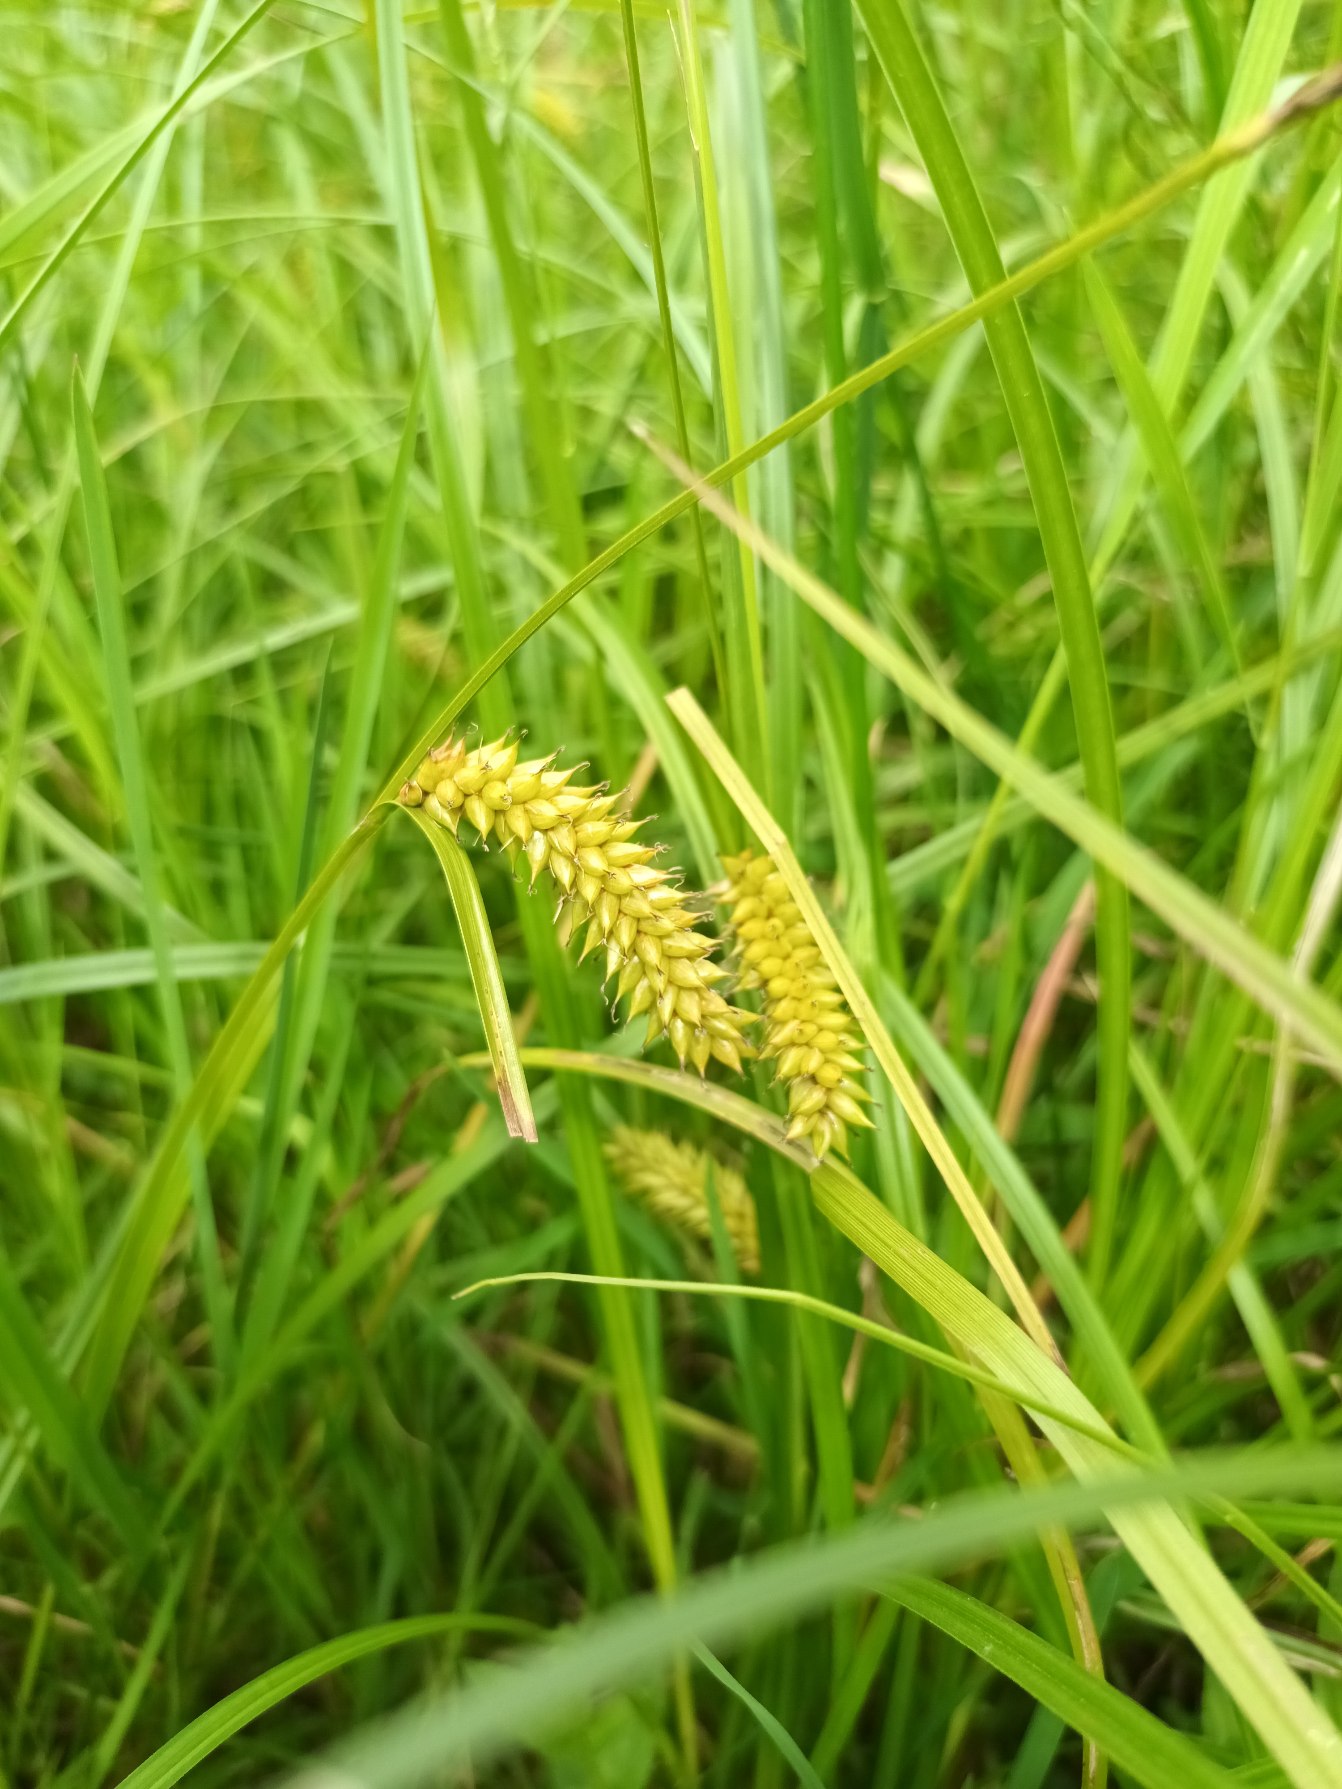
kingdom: Plantae
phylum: Tracheophyta
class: Liliopsida
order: Poales
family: Cyperaceae
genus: Carex
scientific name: Carex vesicaria
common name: Blære-star
